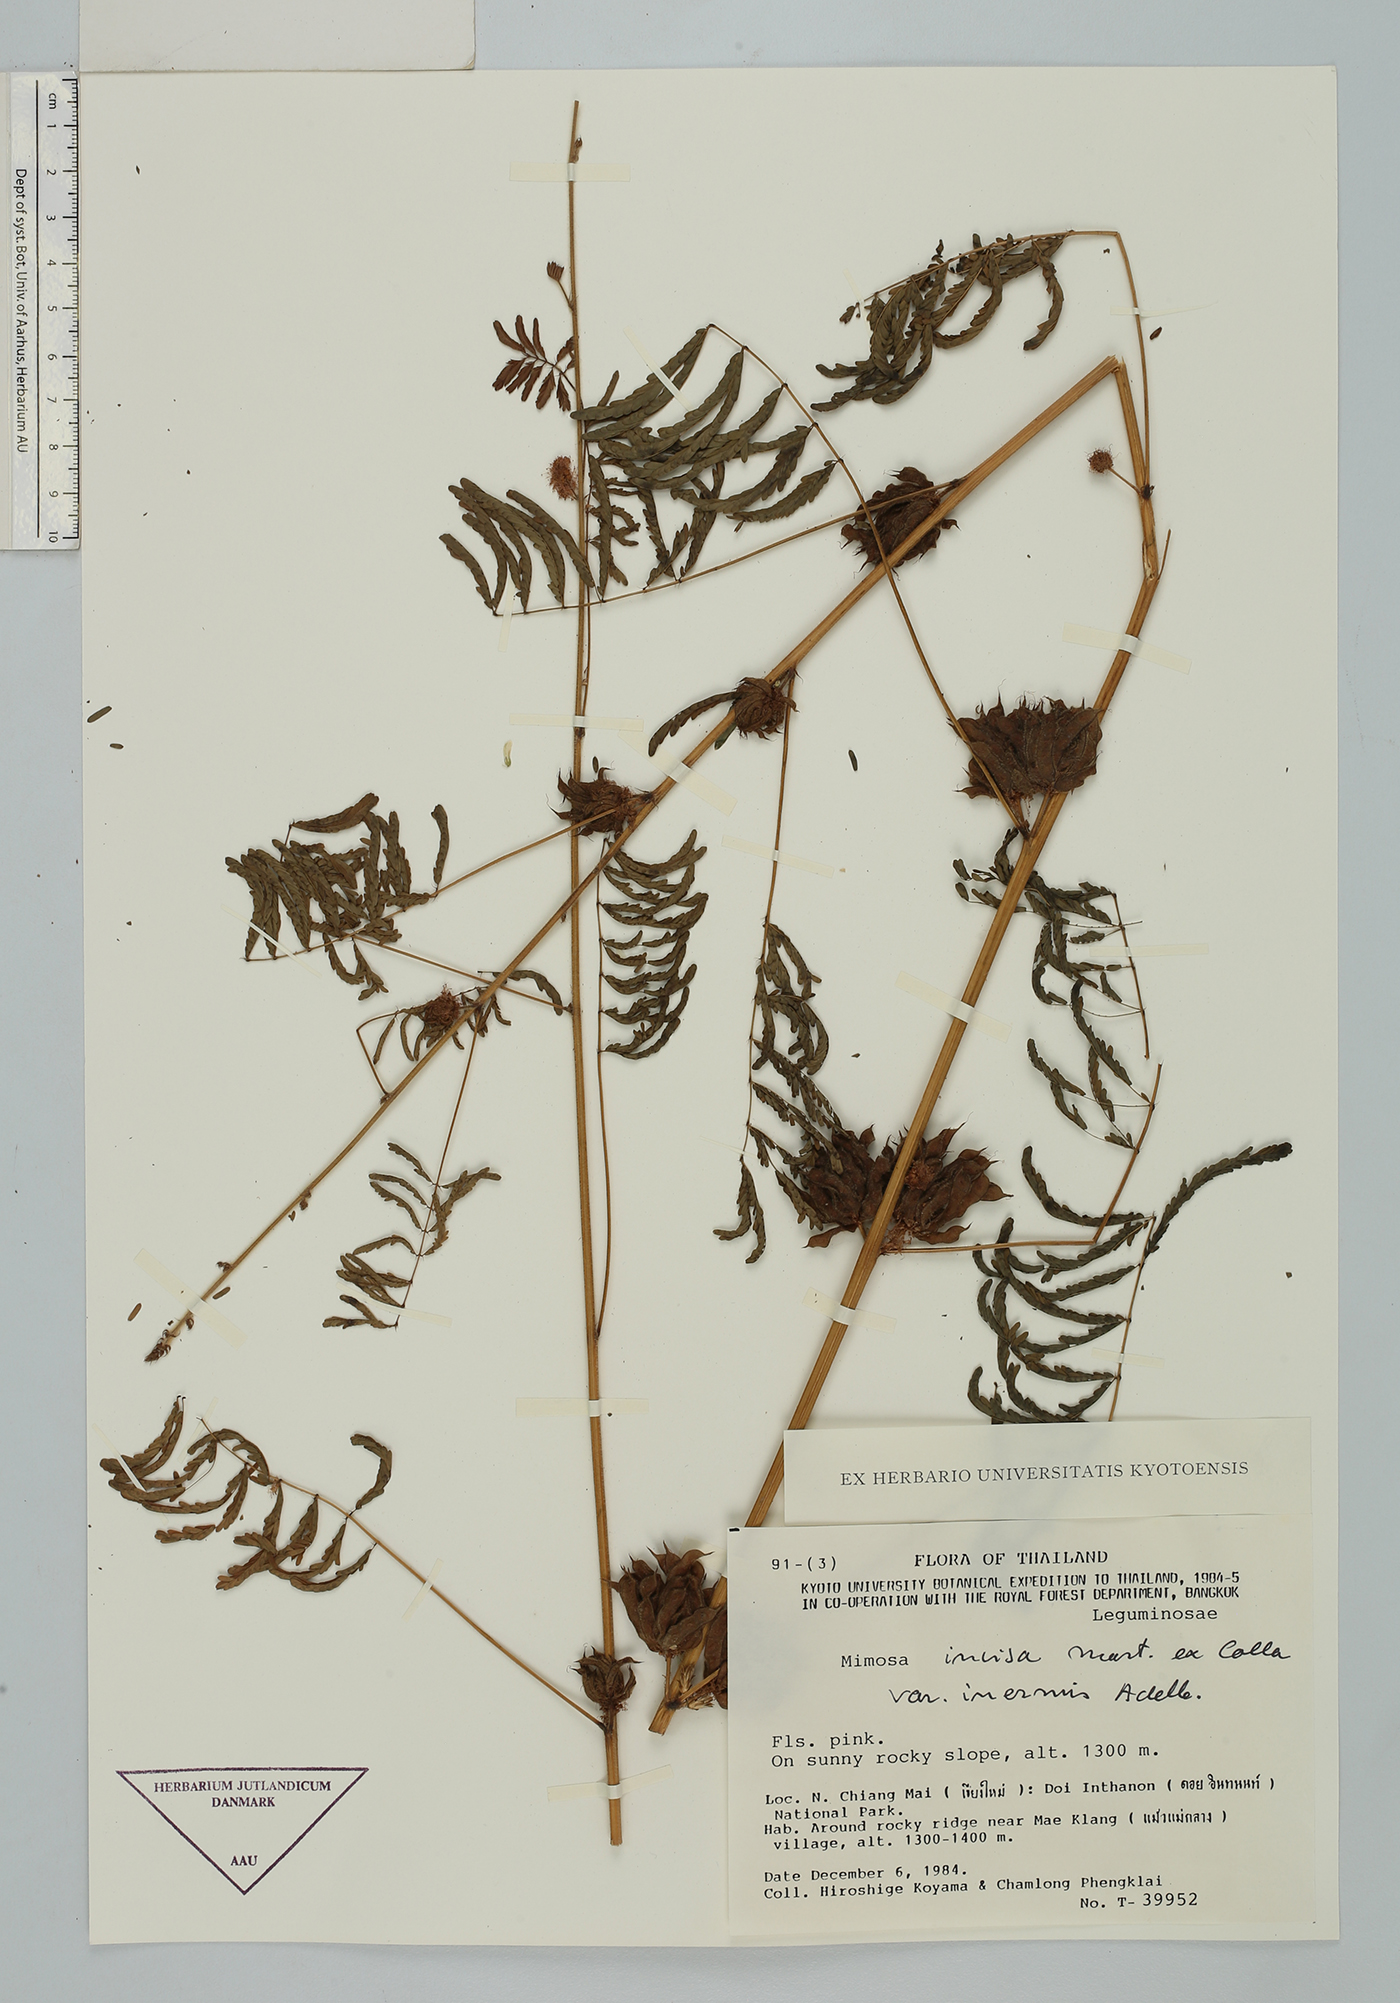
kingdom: Plantae
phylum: Tracheophyta
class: Magnoliopsida
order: Fabales
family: Fabaceae
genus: Mimosa
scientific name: Mimosa diplotricha
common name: Giant sensitive-plant
